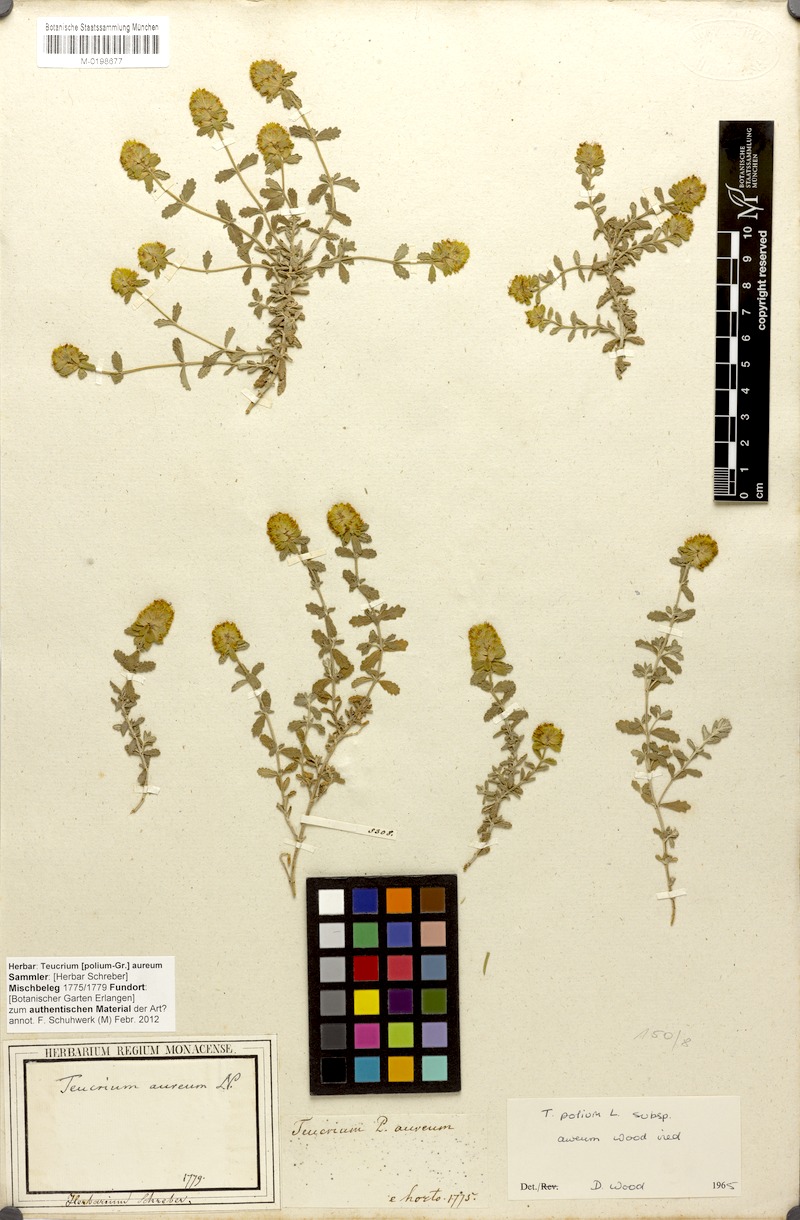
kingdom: Plantae
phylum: Tracheophyta
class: Magnoliopsida
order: Lamiales
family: Lamiaceae
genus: Teucrium
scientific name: Teucrium aureum
